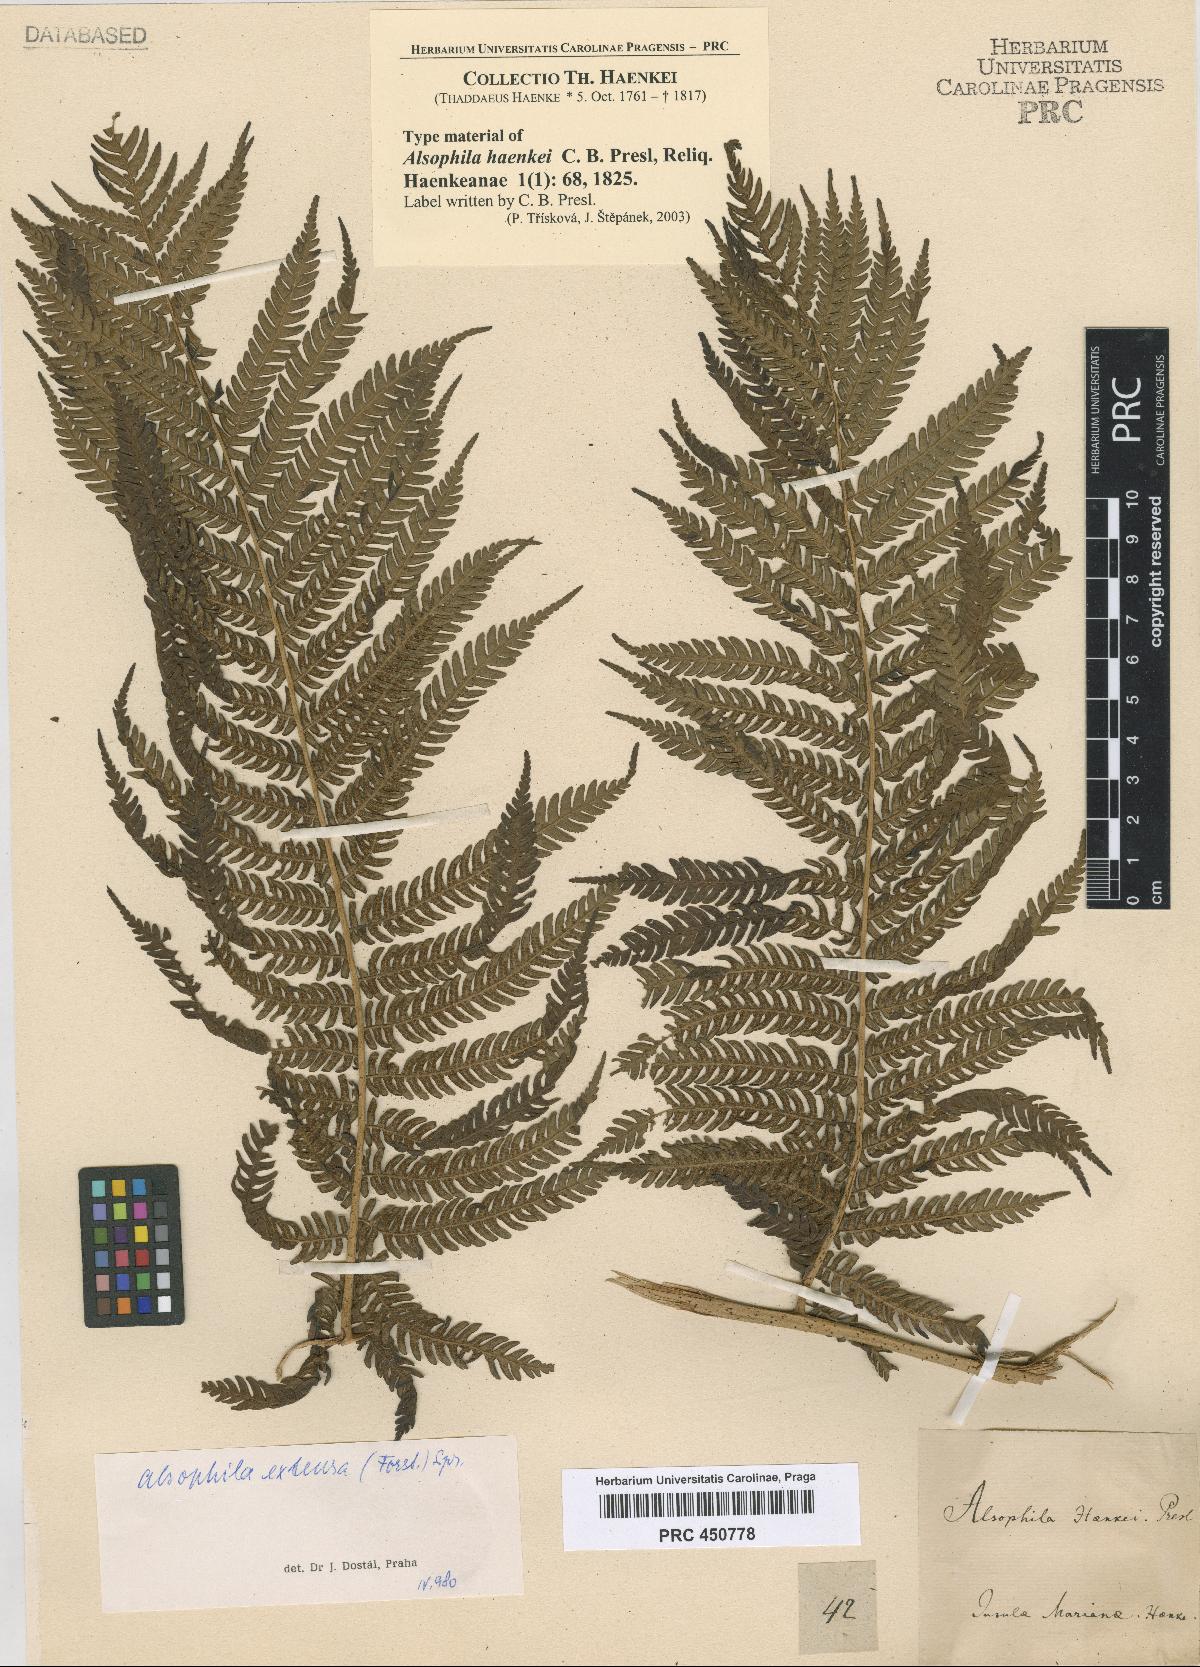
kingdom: Plantae
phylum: Tracheophyta
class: Polypodiopsida
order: Cyatheales
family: Cyatheaceae
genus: Sphaeropteris
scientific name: Sphaeropteris lunulata
